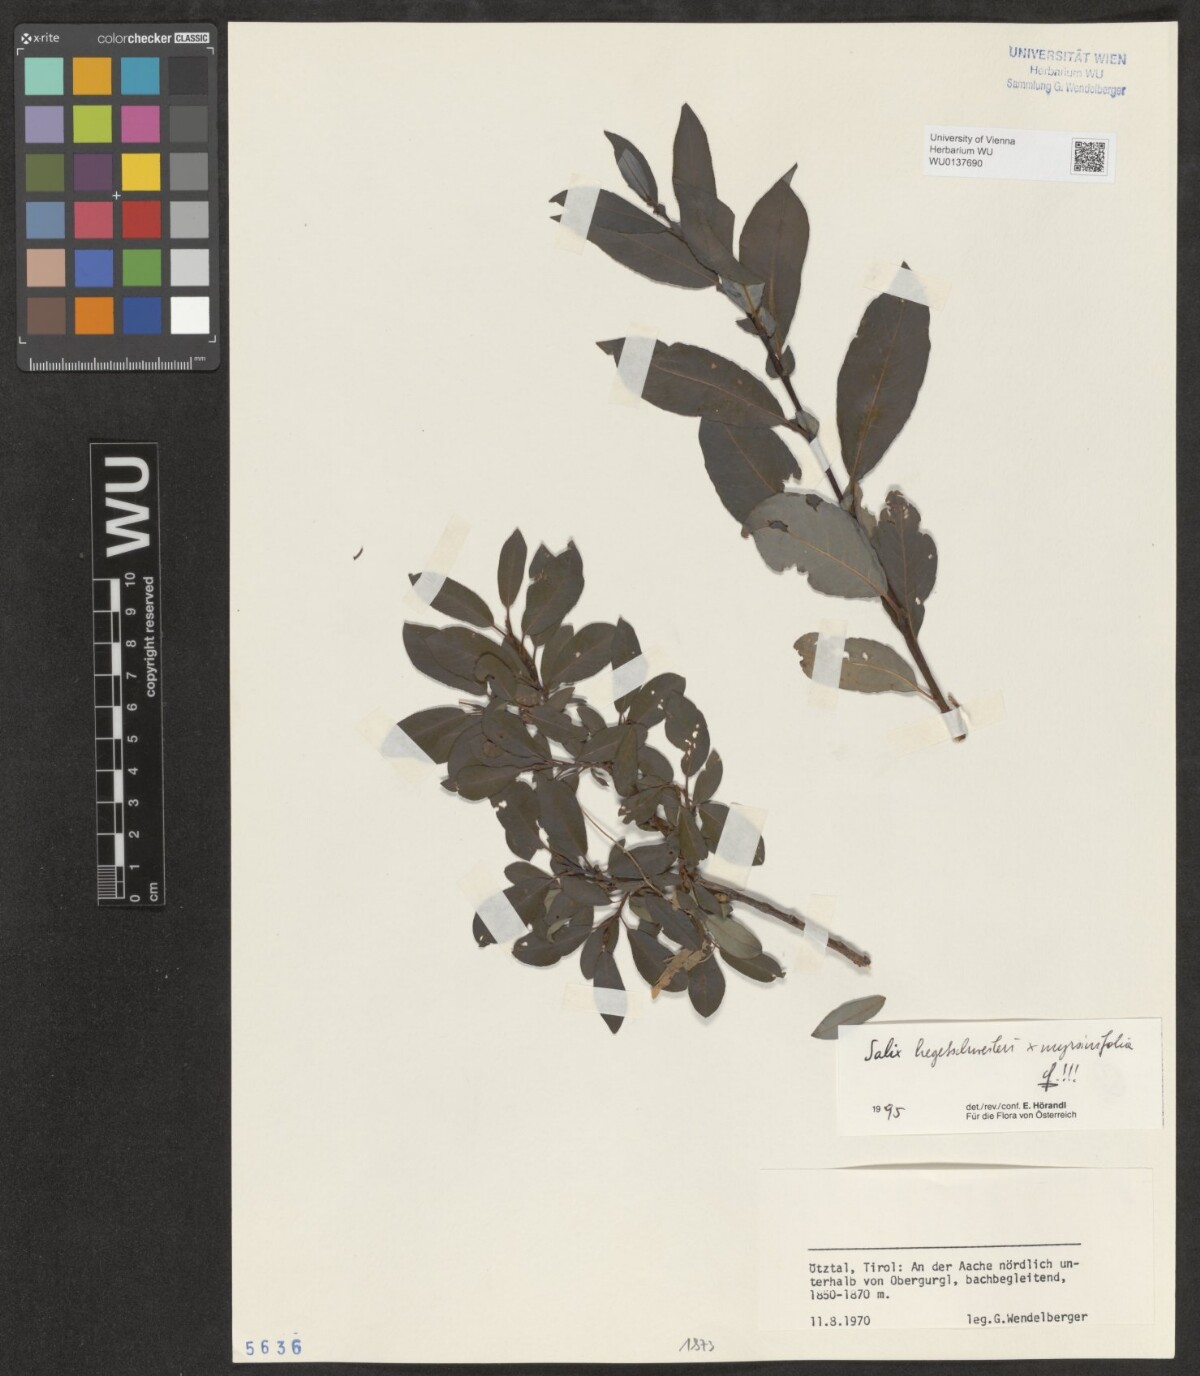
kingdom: Plantae
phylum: Tracheophyta
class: Magnoliopsida
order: Malpighiales
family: Salicaceae
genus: Salix
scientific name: Salix hegetschweileri
